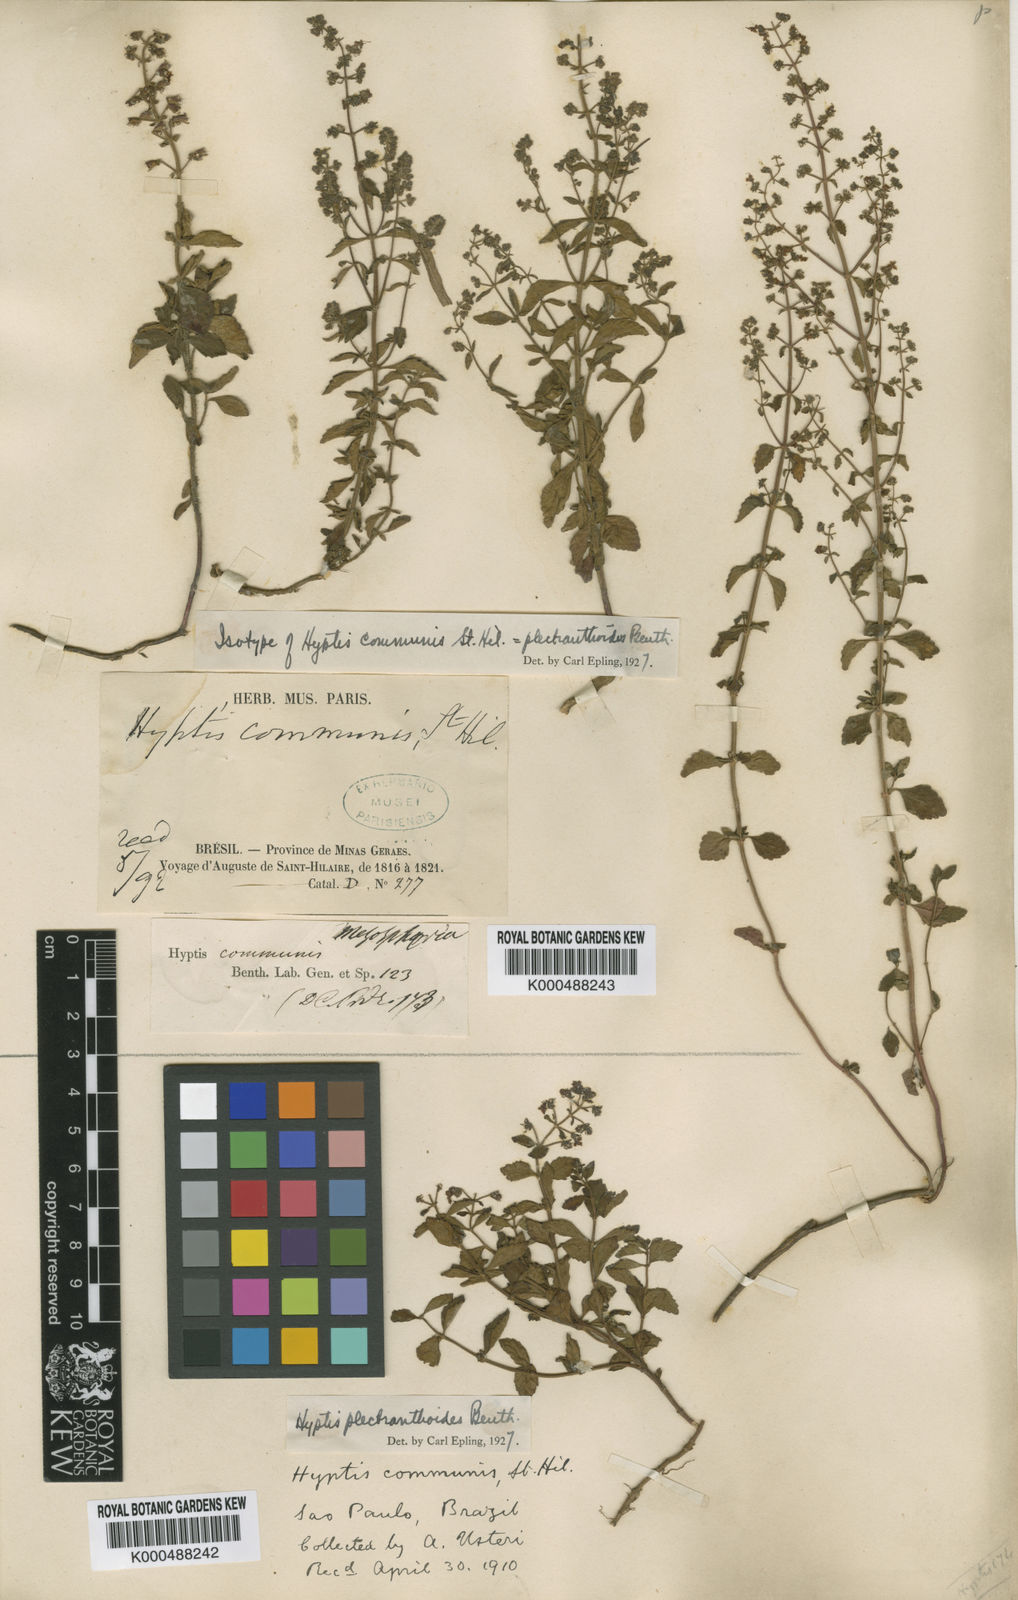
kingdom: Plantae
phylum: Tracheophyta
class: Magnoliopsida
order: Lamiales
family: Lamiaceae
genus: Cantinoa
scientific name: Cantinoa plectranthoides
